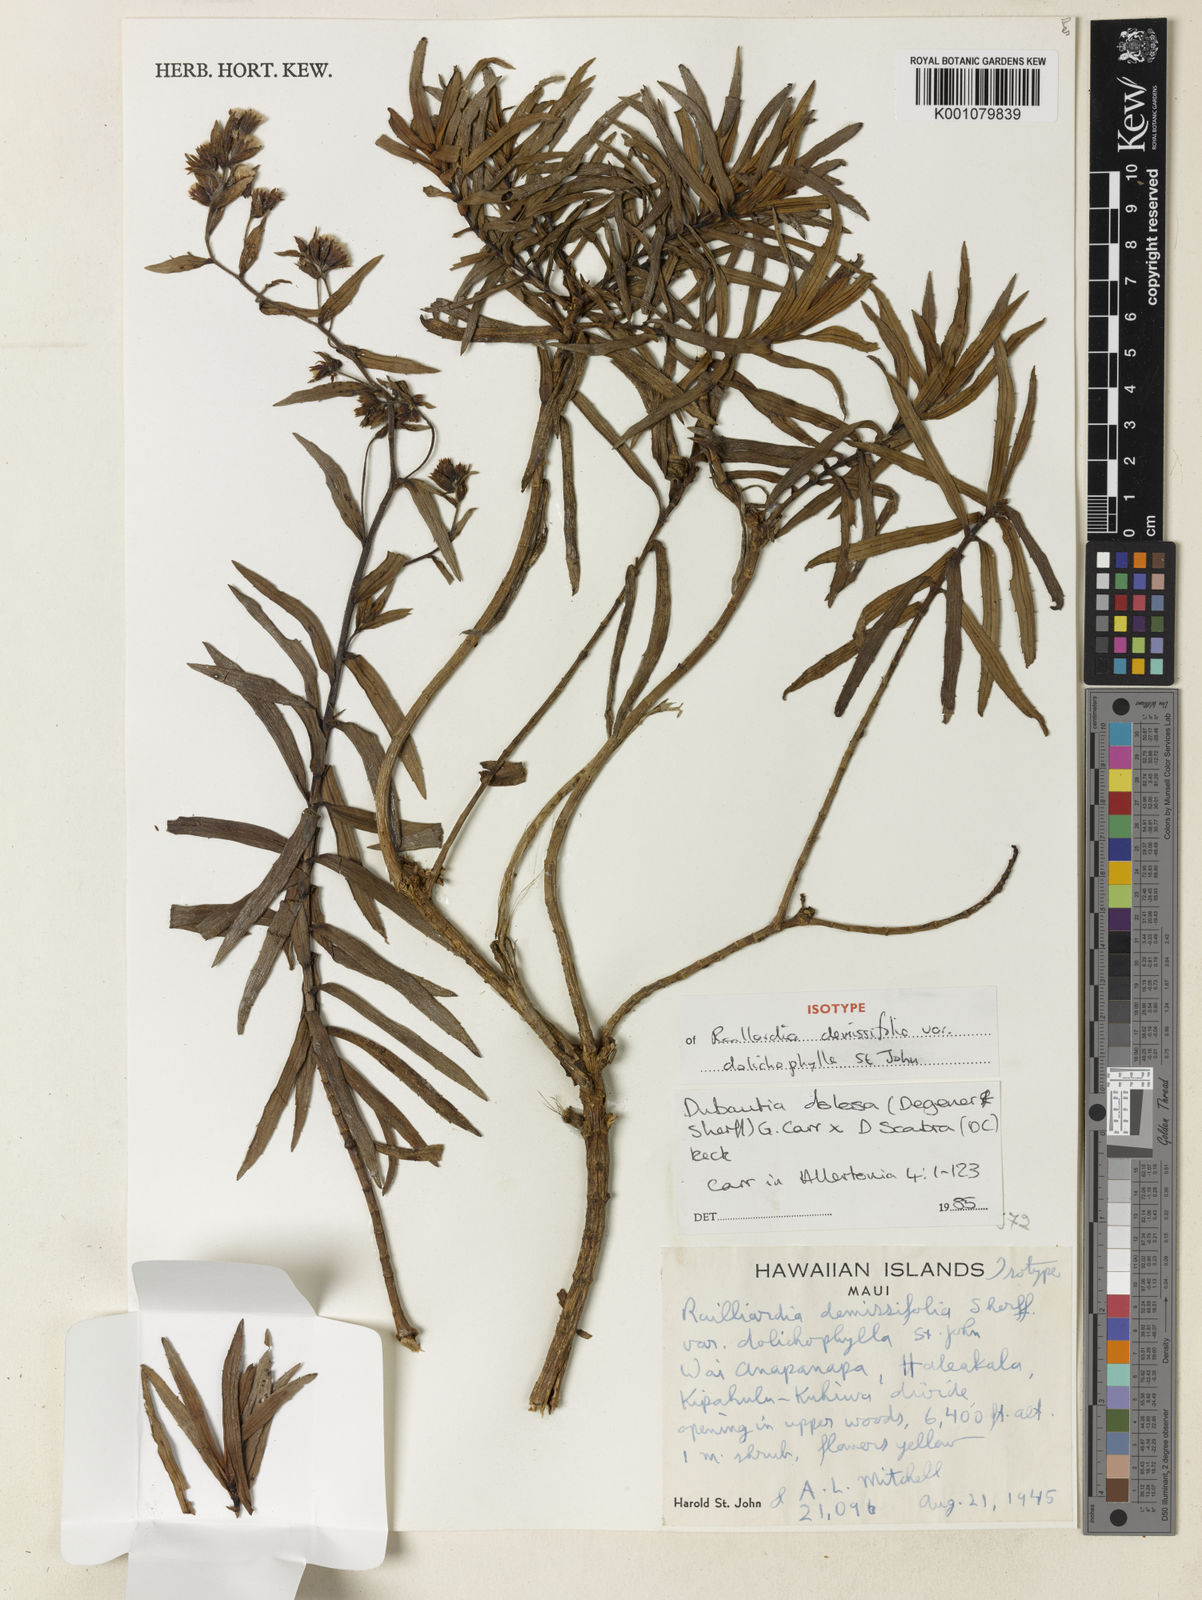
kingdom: Plantae
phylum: Tracheophyta
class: Magnoliopsida
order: Asterales
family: Asteraceae
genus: Dubautia
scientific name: Dubautia waianapanapaensis
